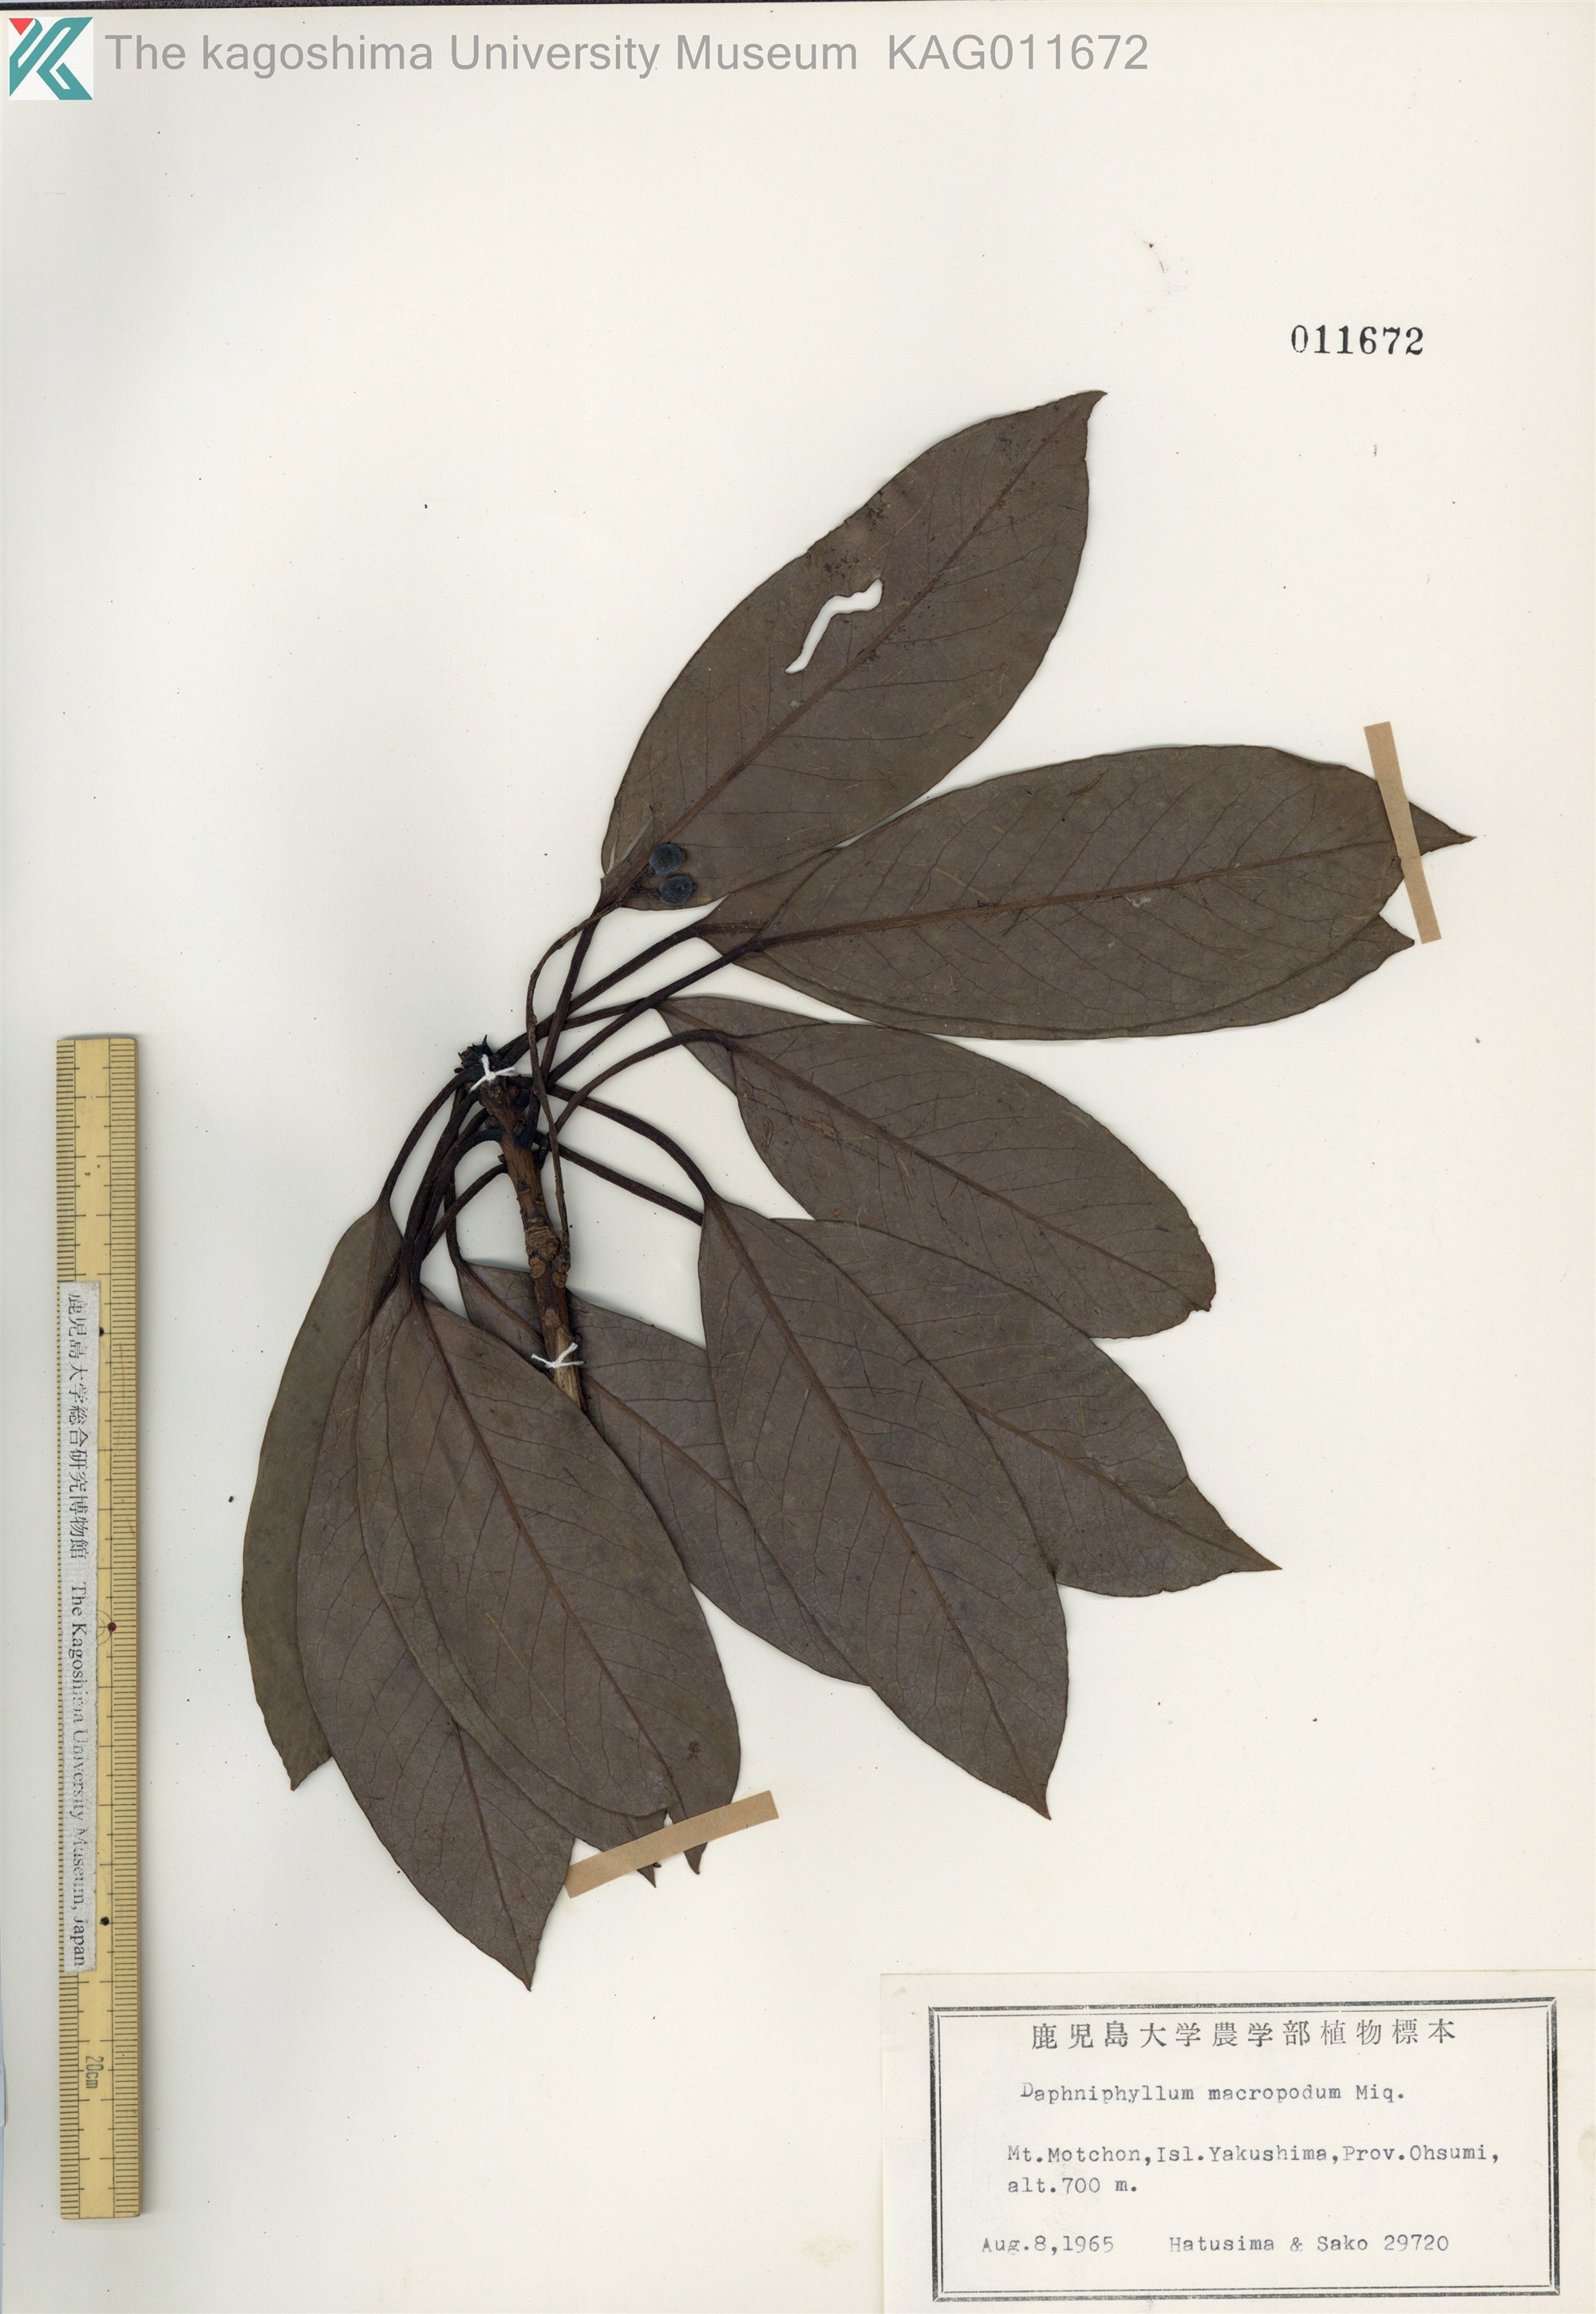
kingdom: Plantae
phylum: Tracheophyta
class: Magnoliopsida
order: Saxifragales
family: Daphniphyllaceae
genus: Daphniphyllum
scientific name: Daphniphyllum macropodum
